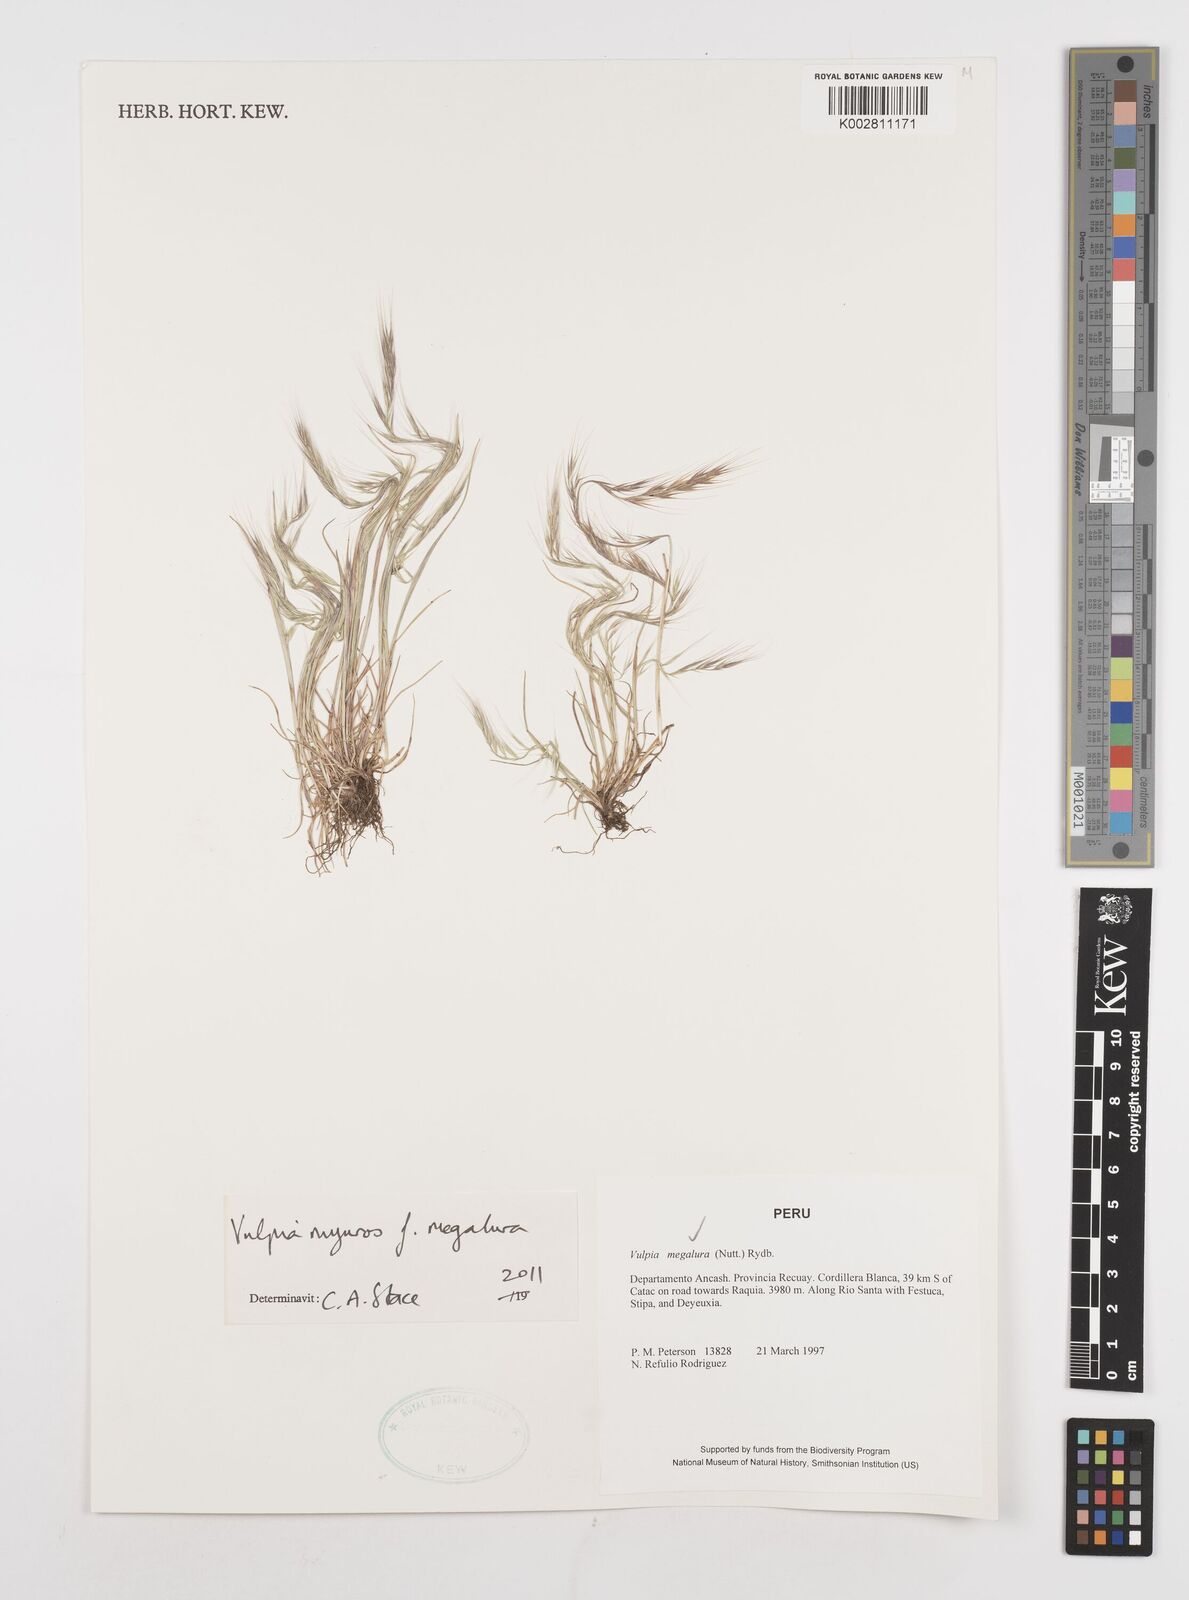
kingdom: Plantae
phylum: Tracheophyta
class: Liliopsida
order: Poales
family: Poaceae
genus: Festuca
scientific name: Festuca myuros
